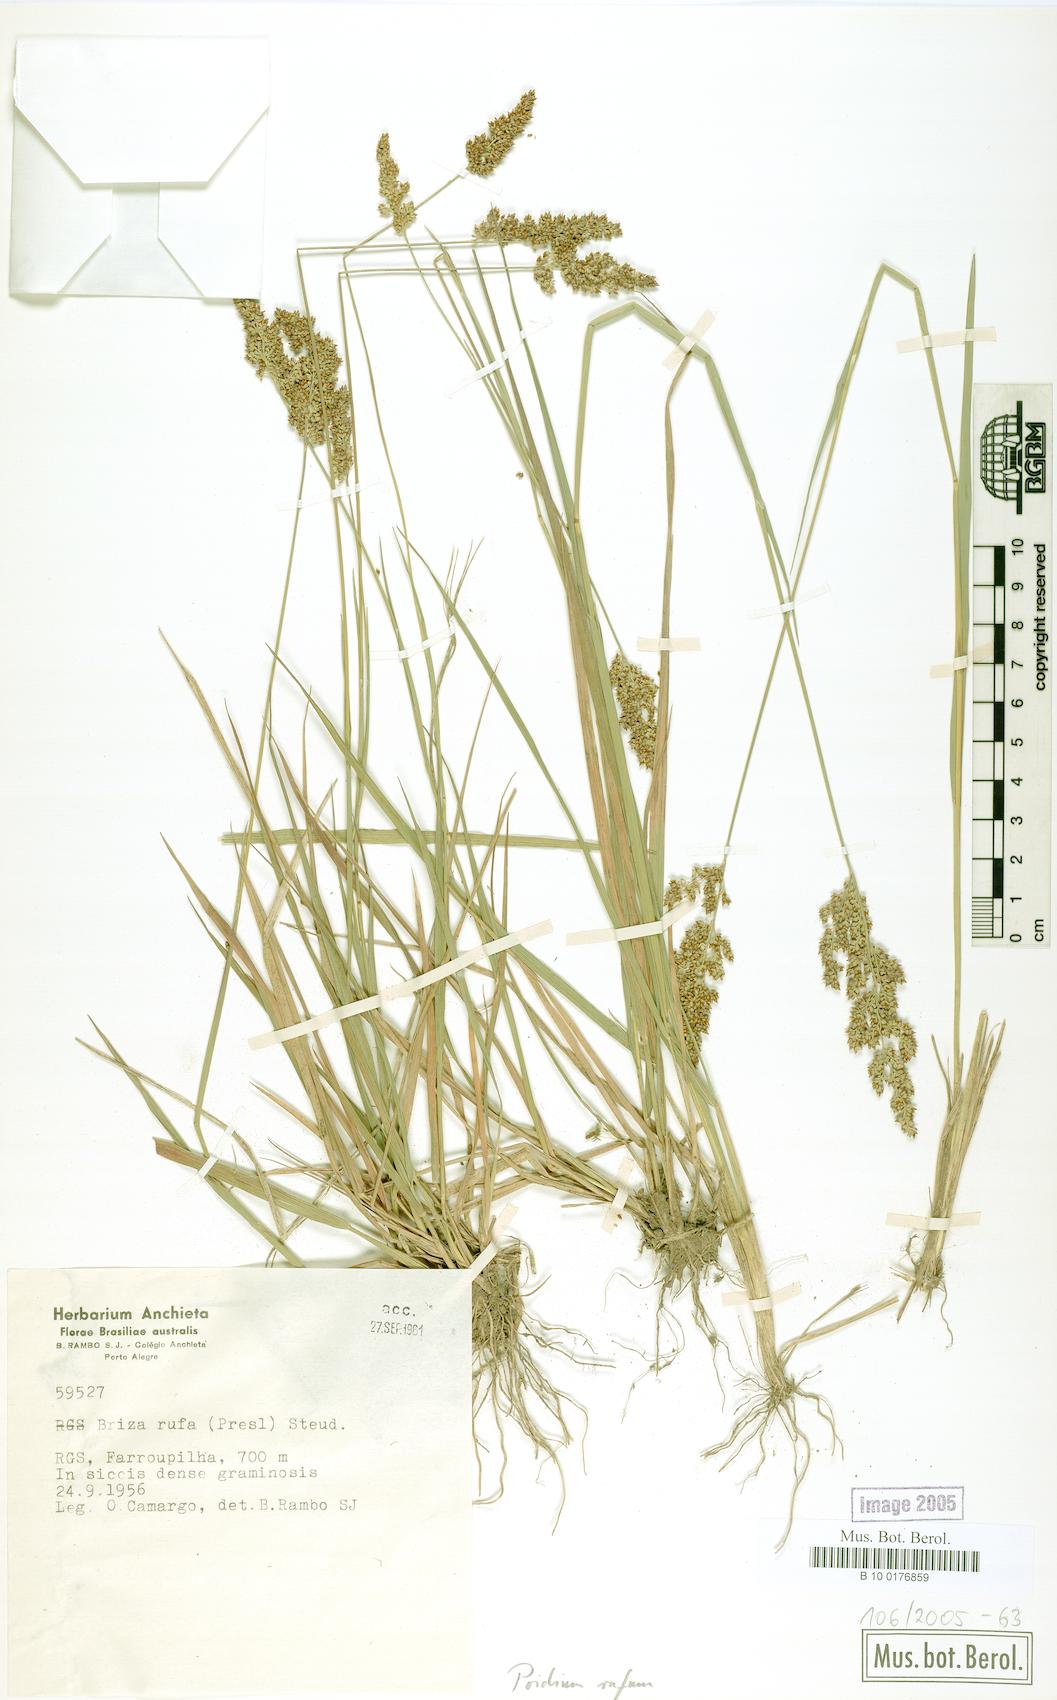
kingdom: Plantae
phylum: Tracheophyta
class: Liliopsida
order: Poales
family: Poaceae
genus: Lombardochloa
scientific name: Lombardochloa rufa
